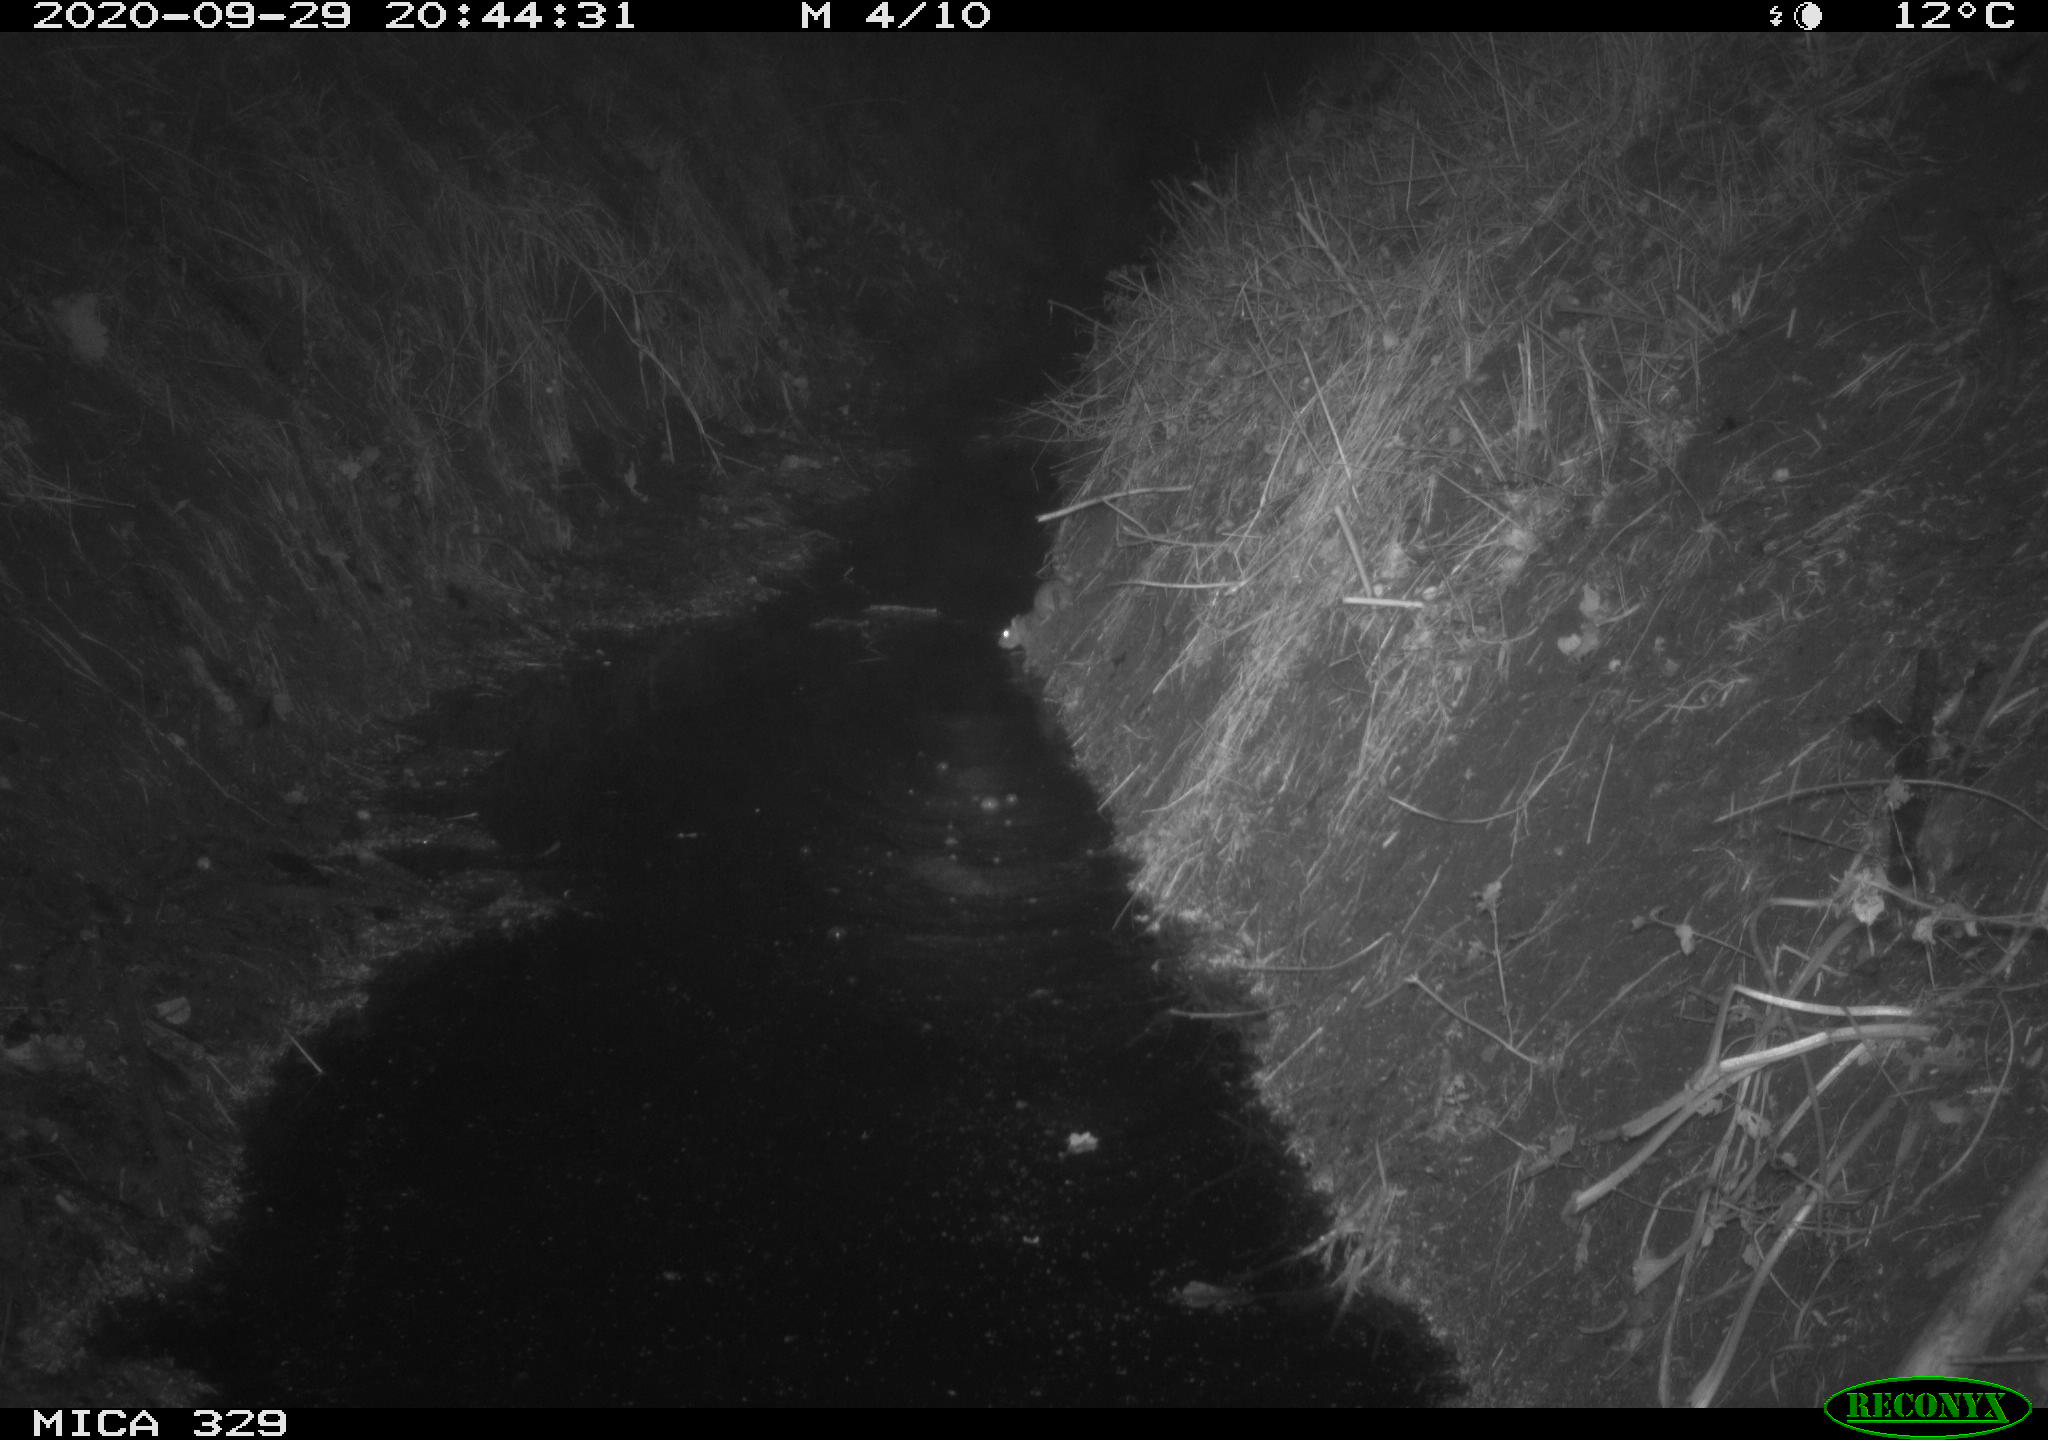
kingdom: Animalia
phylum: Chordata
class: Mammalia
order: Rodentia
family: Muridae
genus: Rattus
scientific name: Rattus norvegicus
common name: Brown rat
